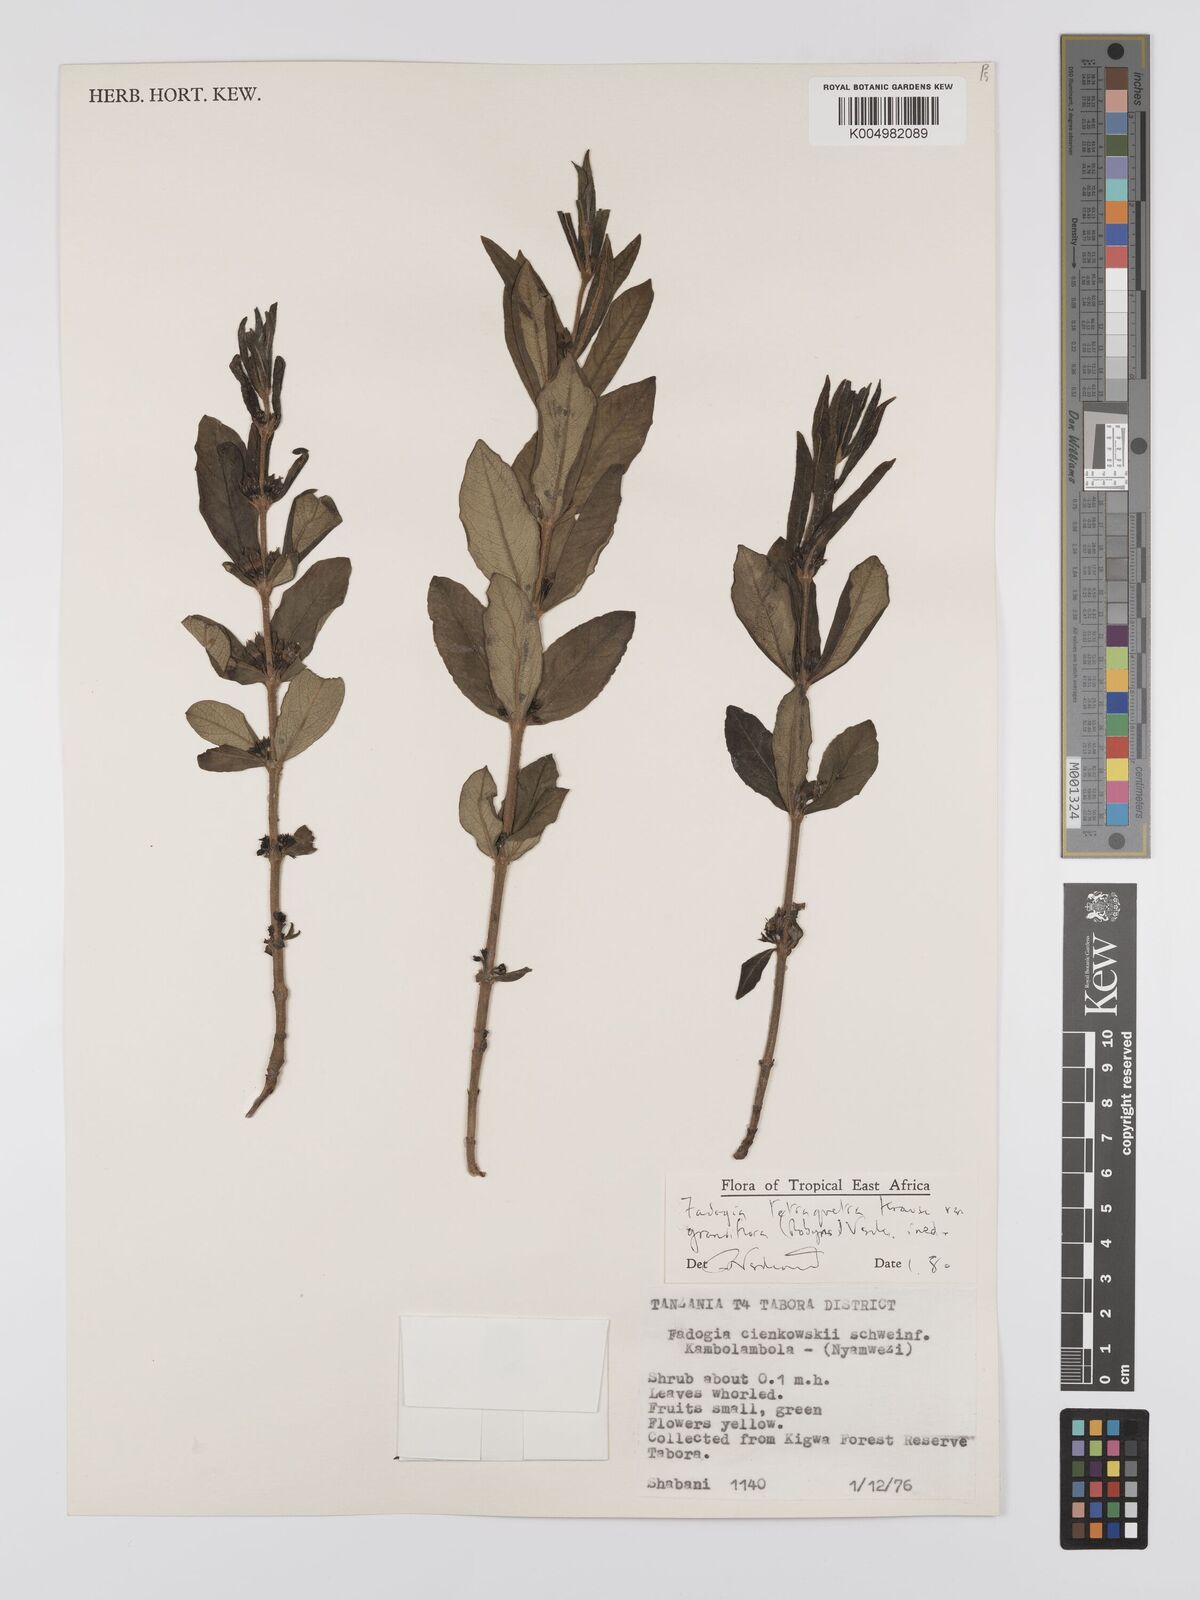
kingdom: Plantae
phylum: Tracheophyta
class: Magnoliopsida
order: Gentianales
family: Rubiaceae
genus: Fadogia
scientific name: Fadogia tetraquetra
